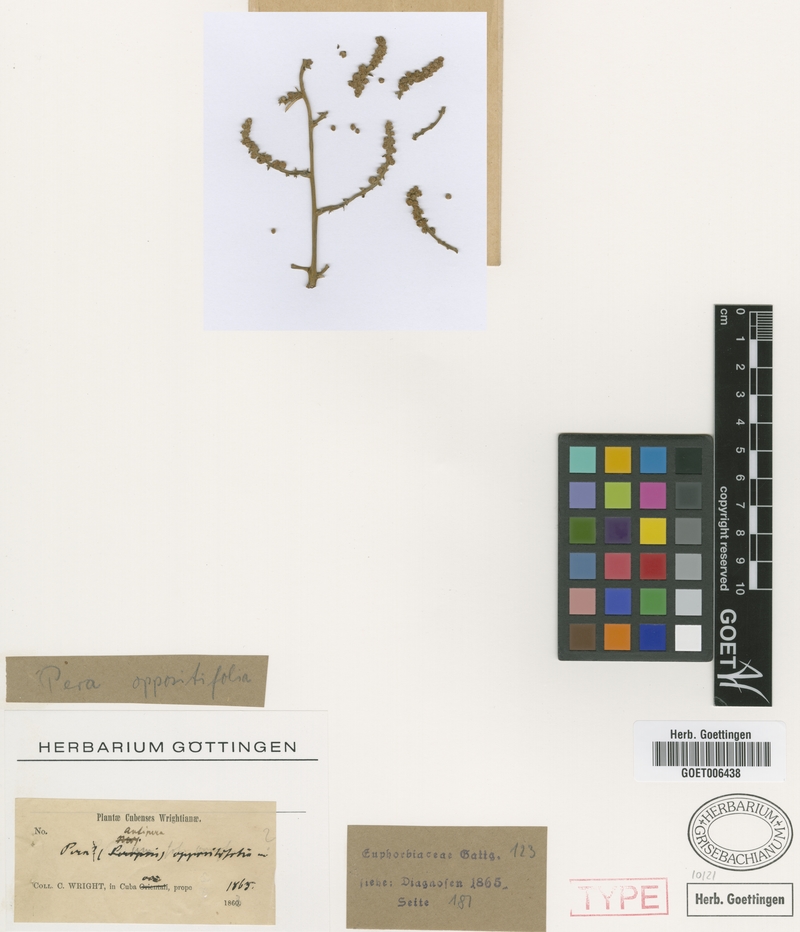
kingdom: Plantae
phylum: Tracheophyta
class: Magnoliopsida
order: Malpighiales
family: Peraceae
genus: Pera
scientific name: Pera oppositifolia
